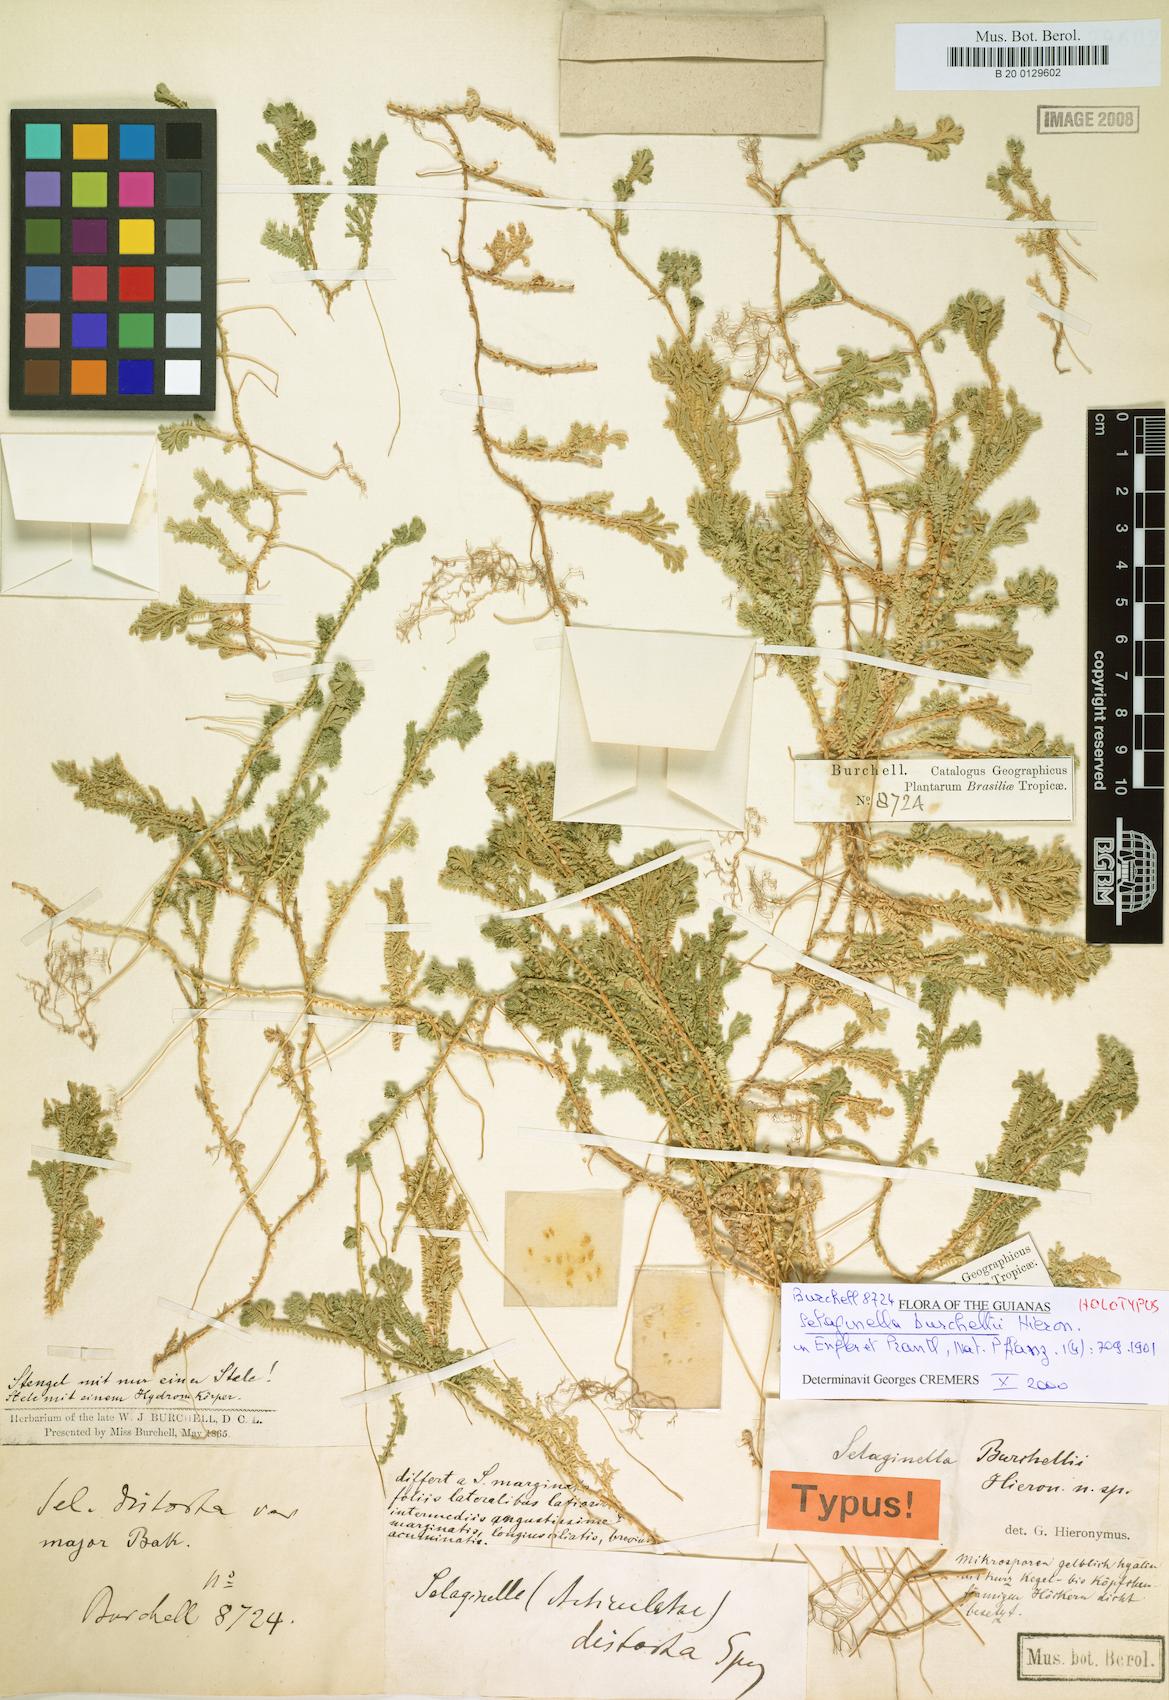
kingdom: Plantae
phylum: Tracheophyta
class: Lycopodiopsida
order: Selaginellales
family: Selaginellaceae
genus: Selaginella
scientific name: Selaginella marginata
